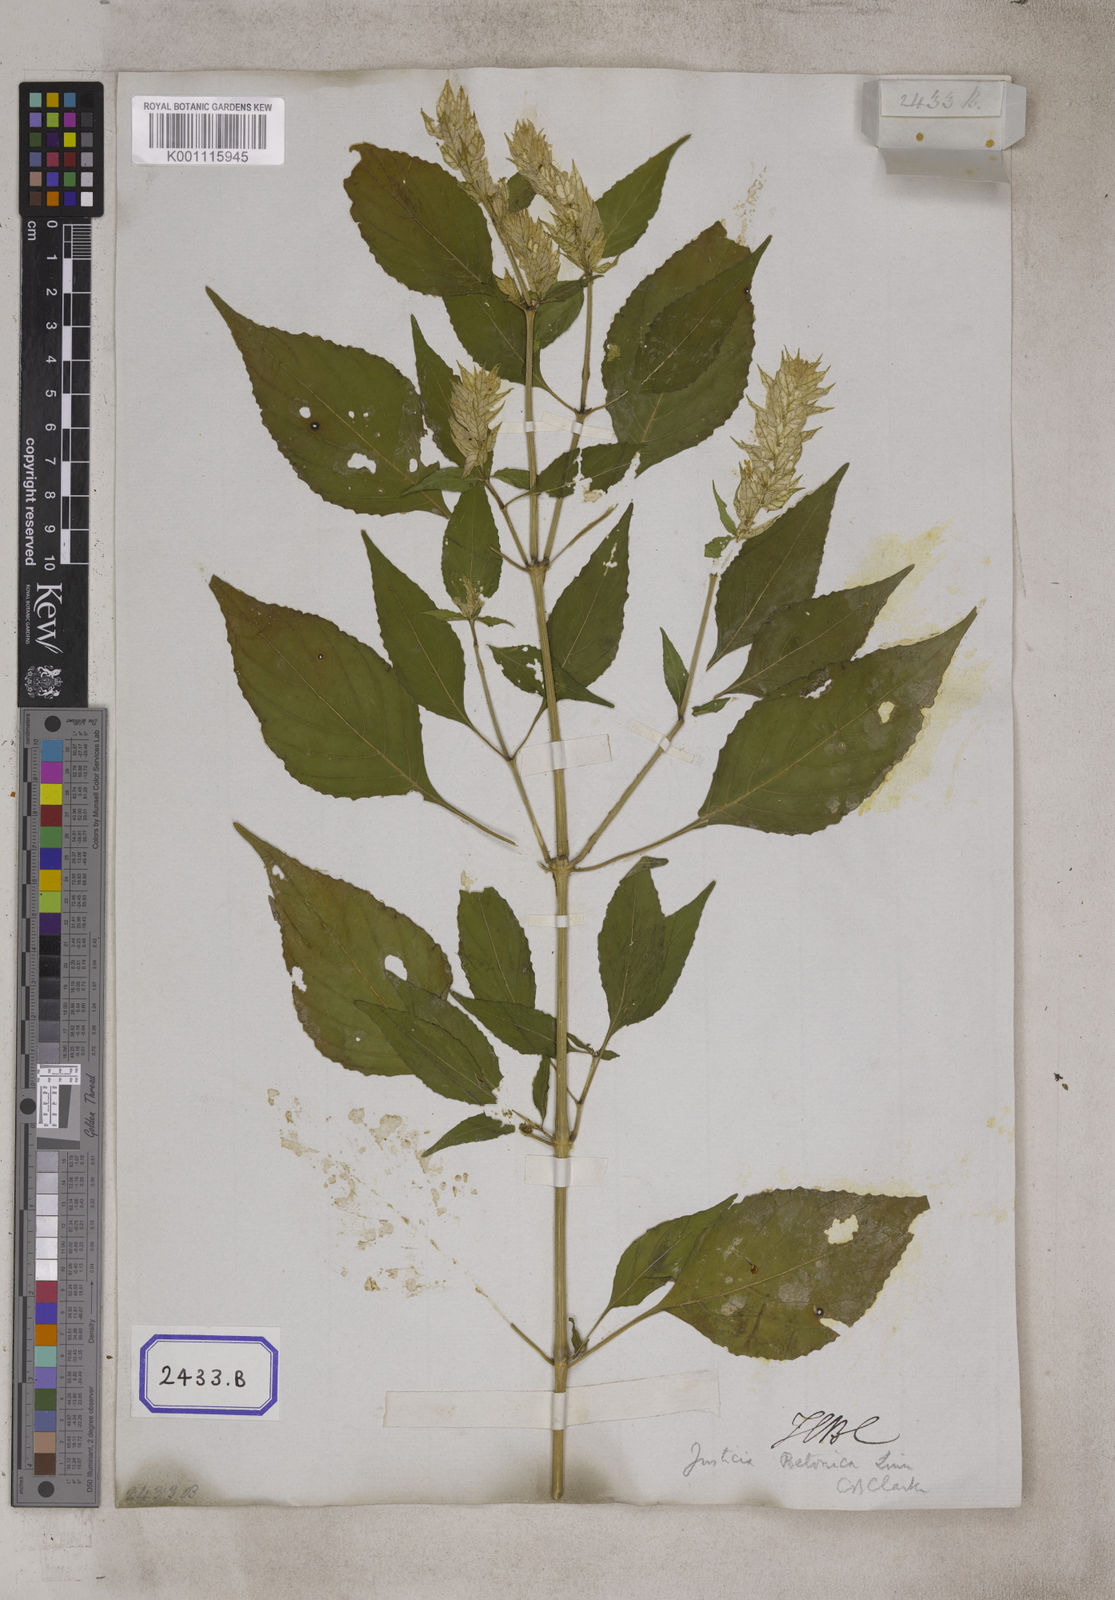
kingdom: Plantae
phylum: Tracheophyta
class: Magnoliopsida
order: Lamiales
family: Acanthaceae
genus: Nicoteba
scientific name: Nicoteba betonica
